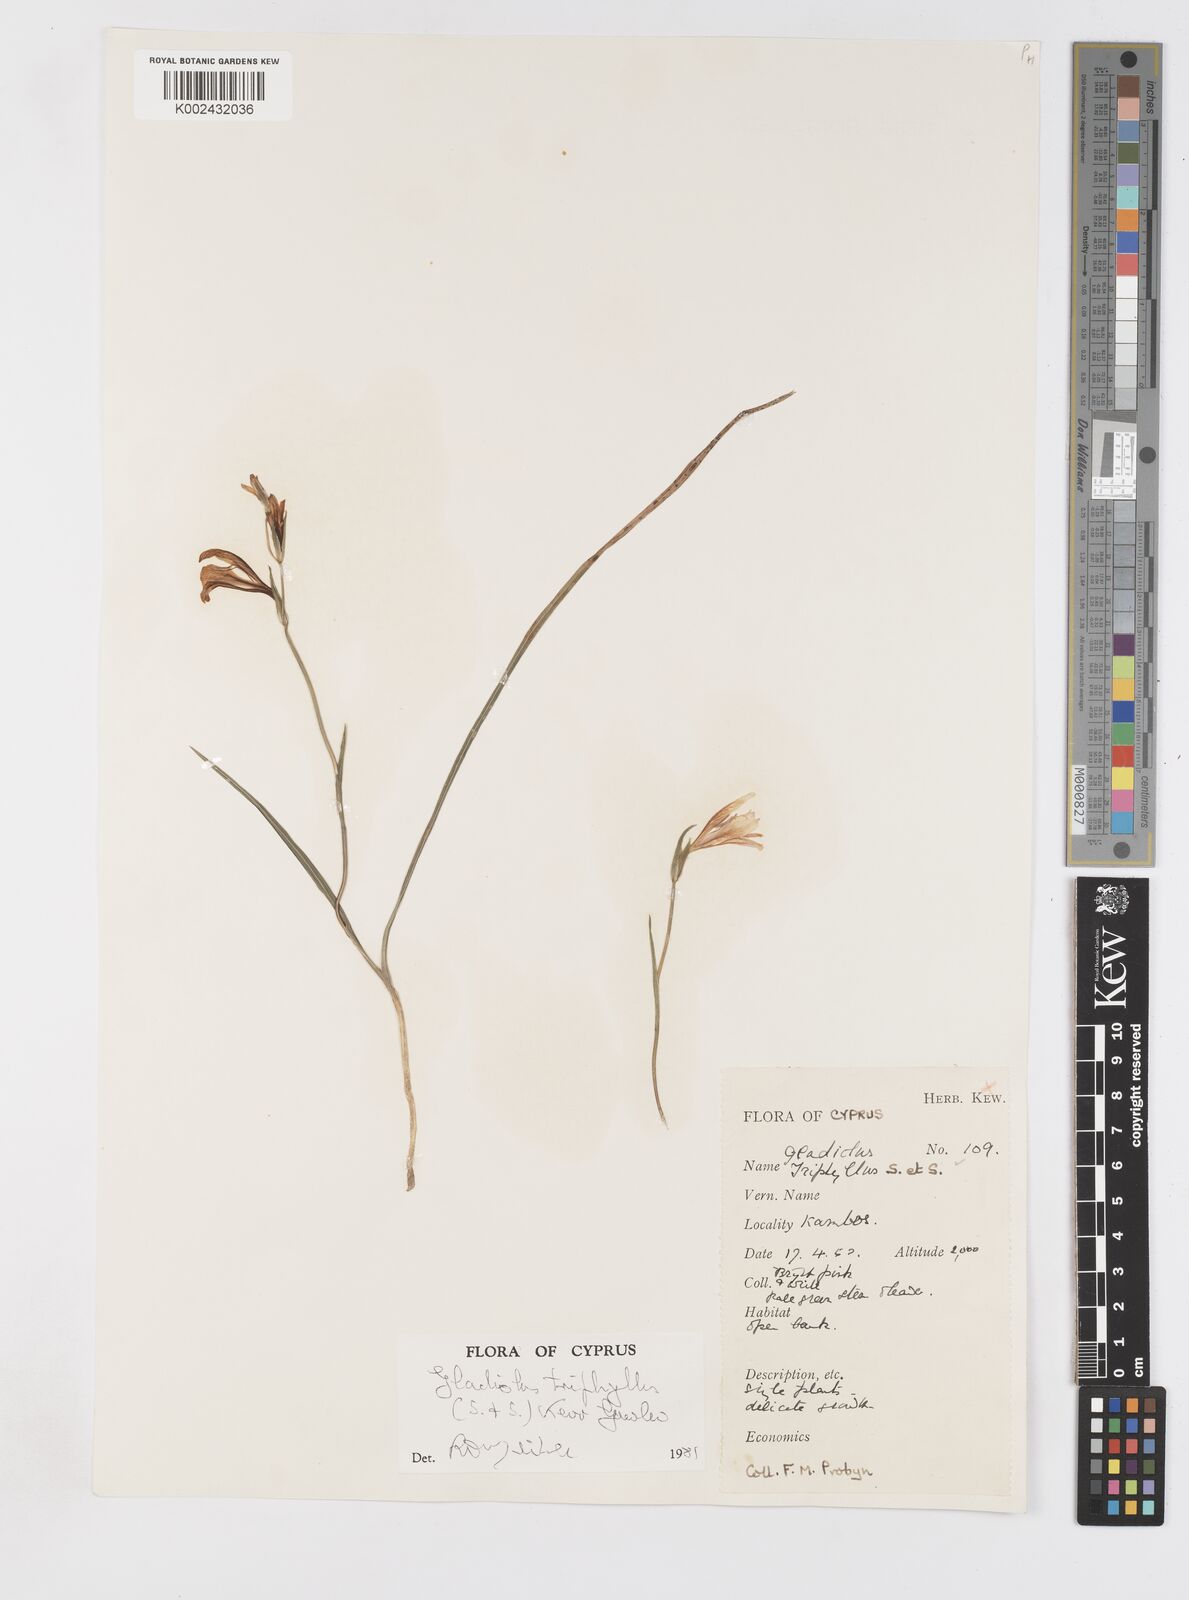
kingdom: Plantae
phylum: Tracheophyta
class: Liliopsida
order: Asparagales
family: Iridaceae
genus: Gladiolus
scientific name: Gladiolus triphyllus
